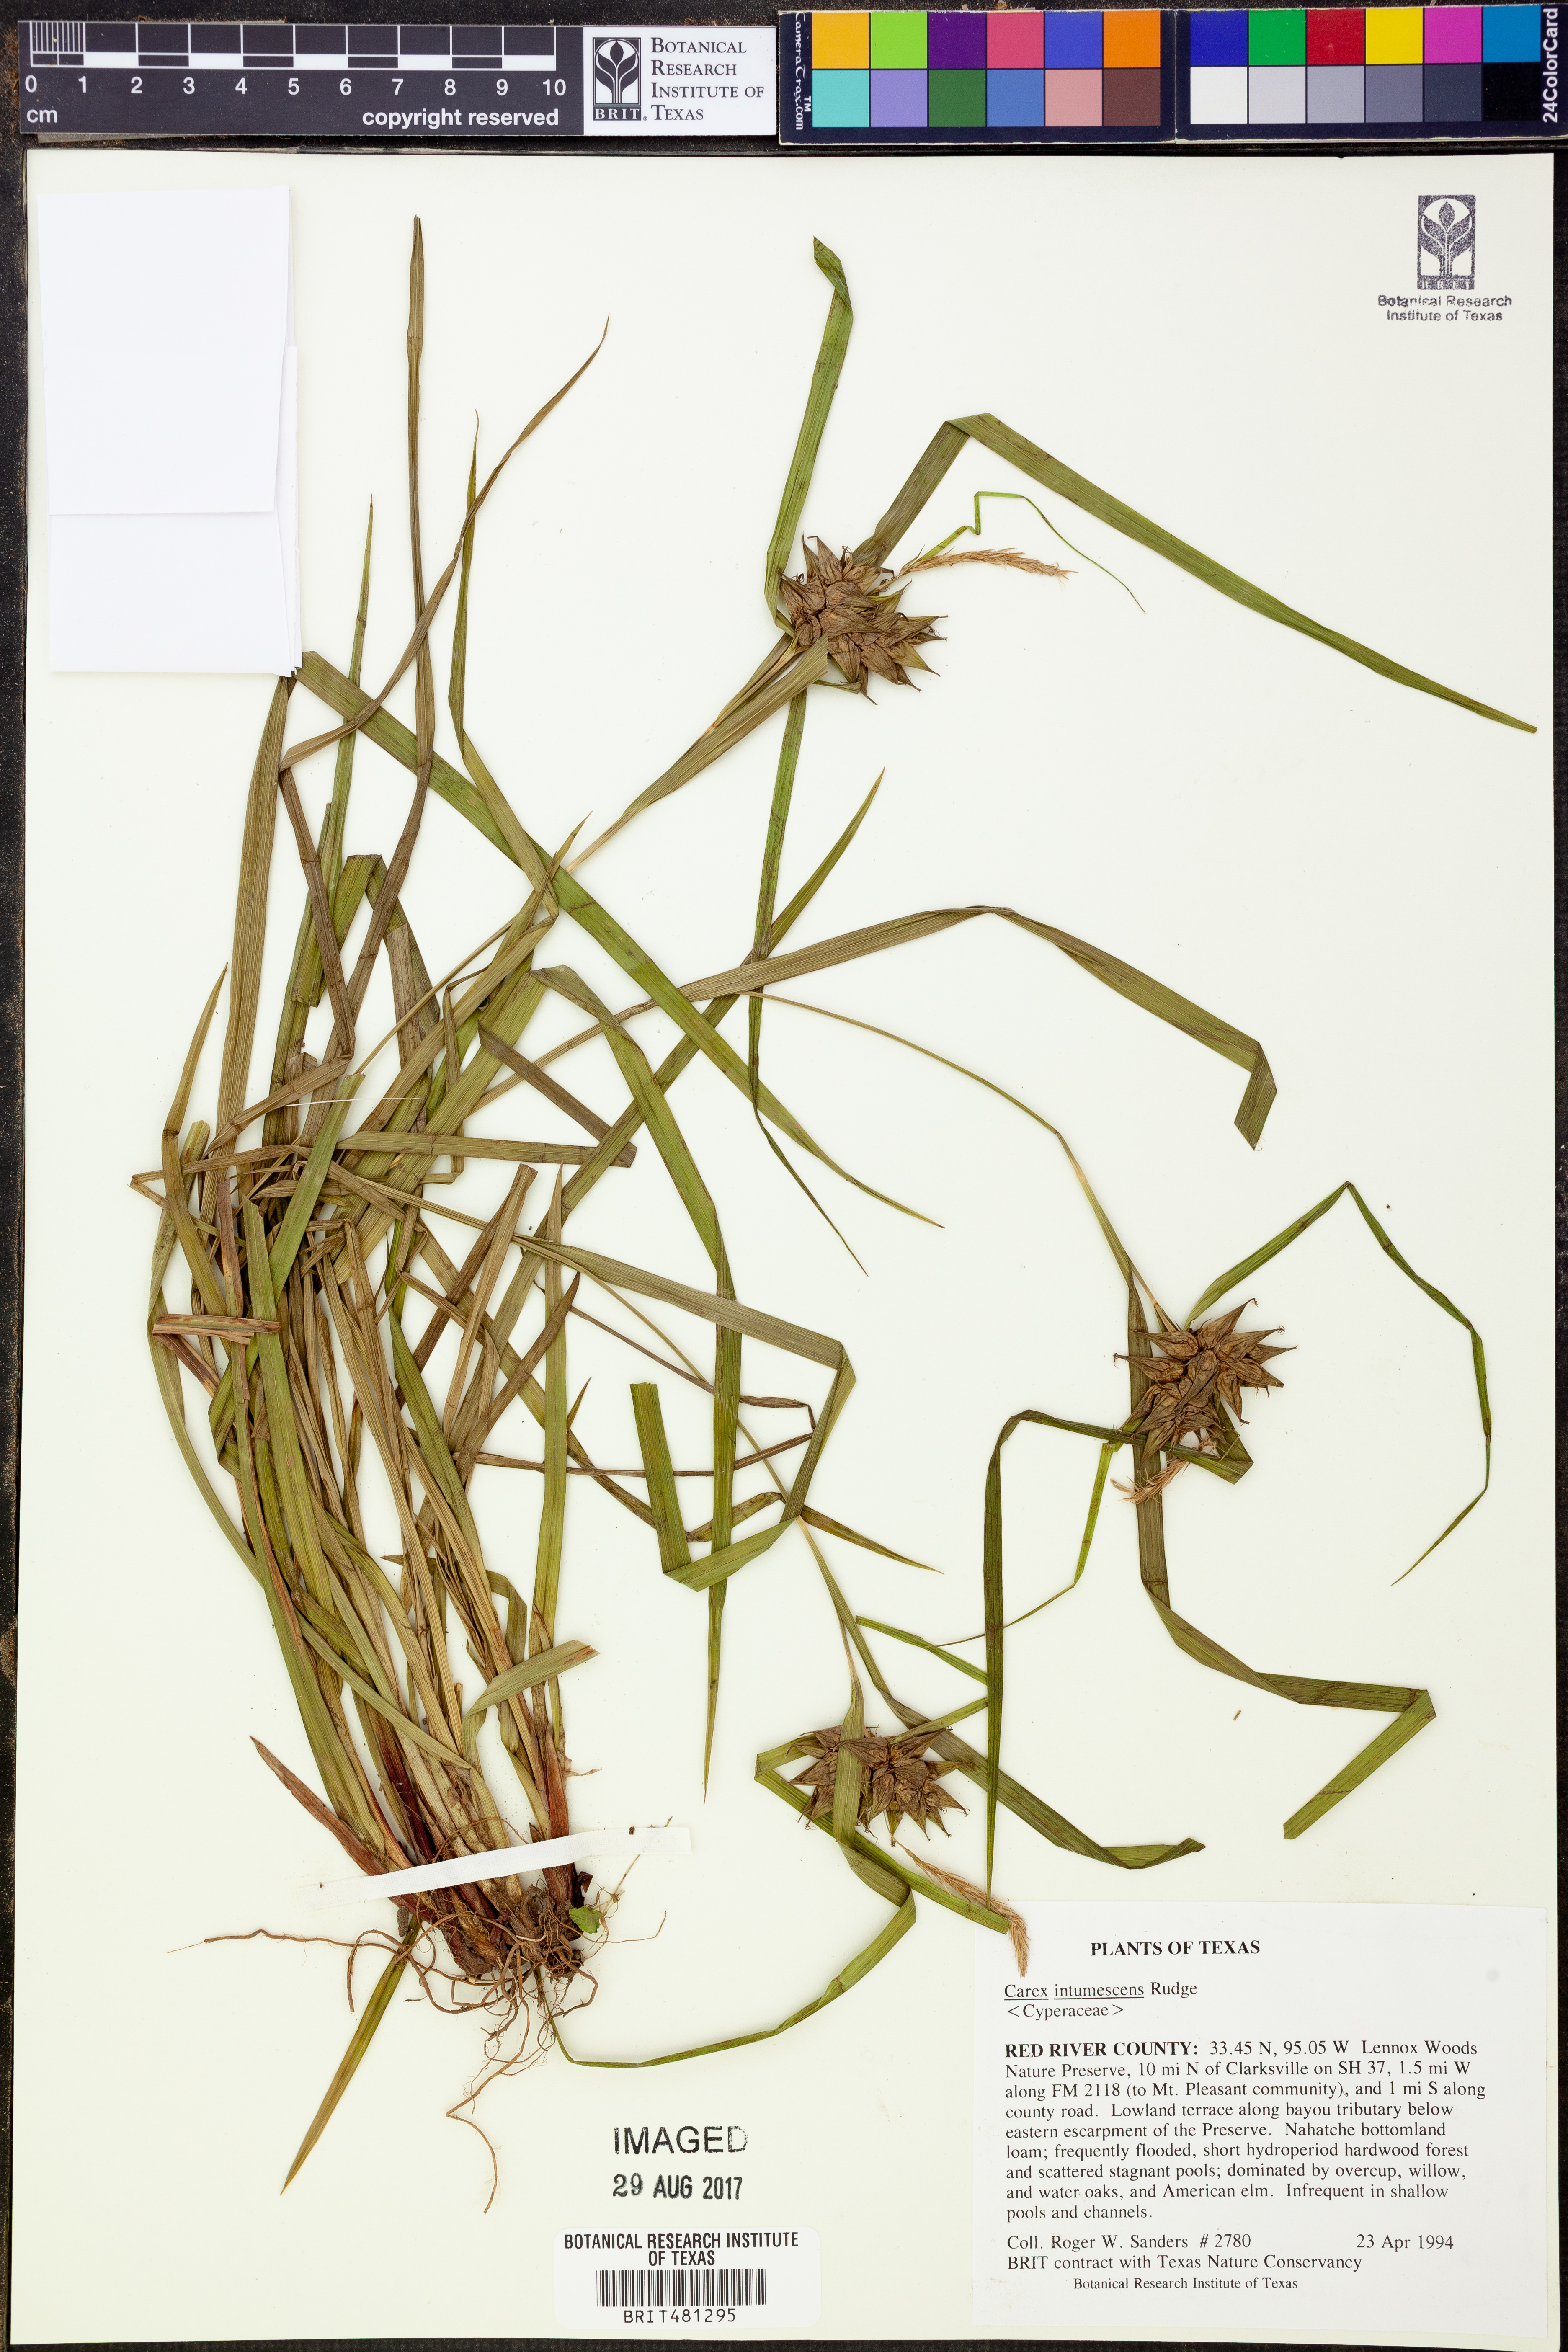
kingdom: Plantae
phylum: Tracheophyta
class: Liliopsida
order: Poales
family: Cyperaceae
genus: Carex
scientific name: Carex intumescens
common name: Greater bladder sedge
